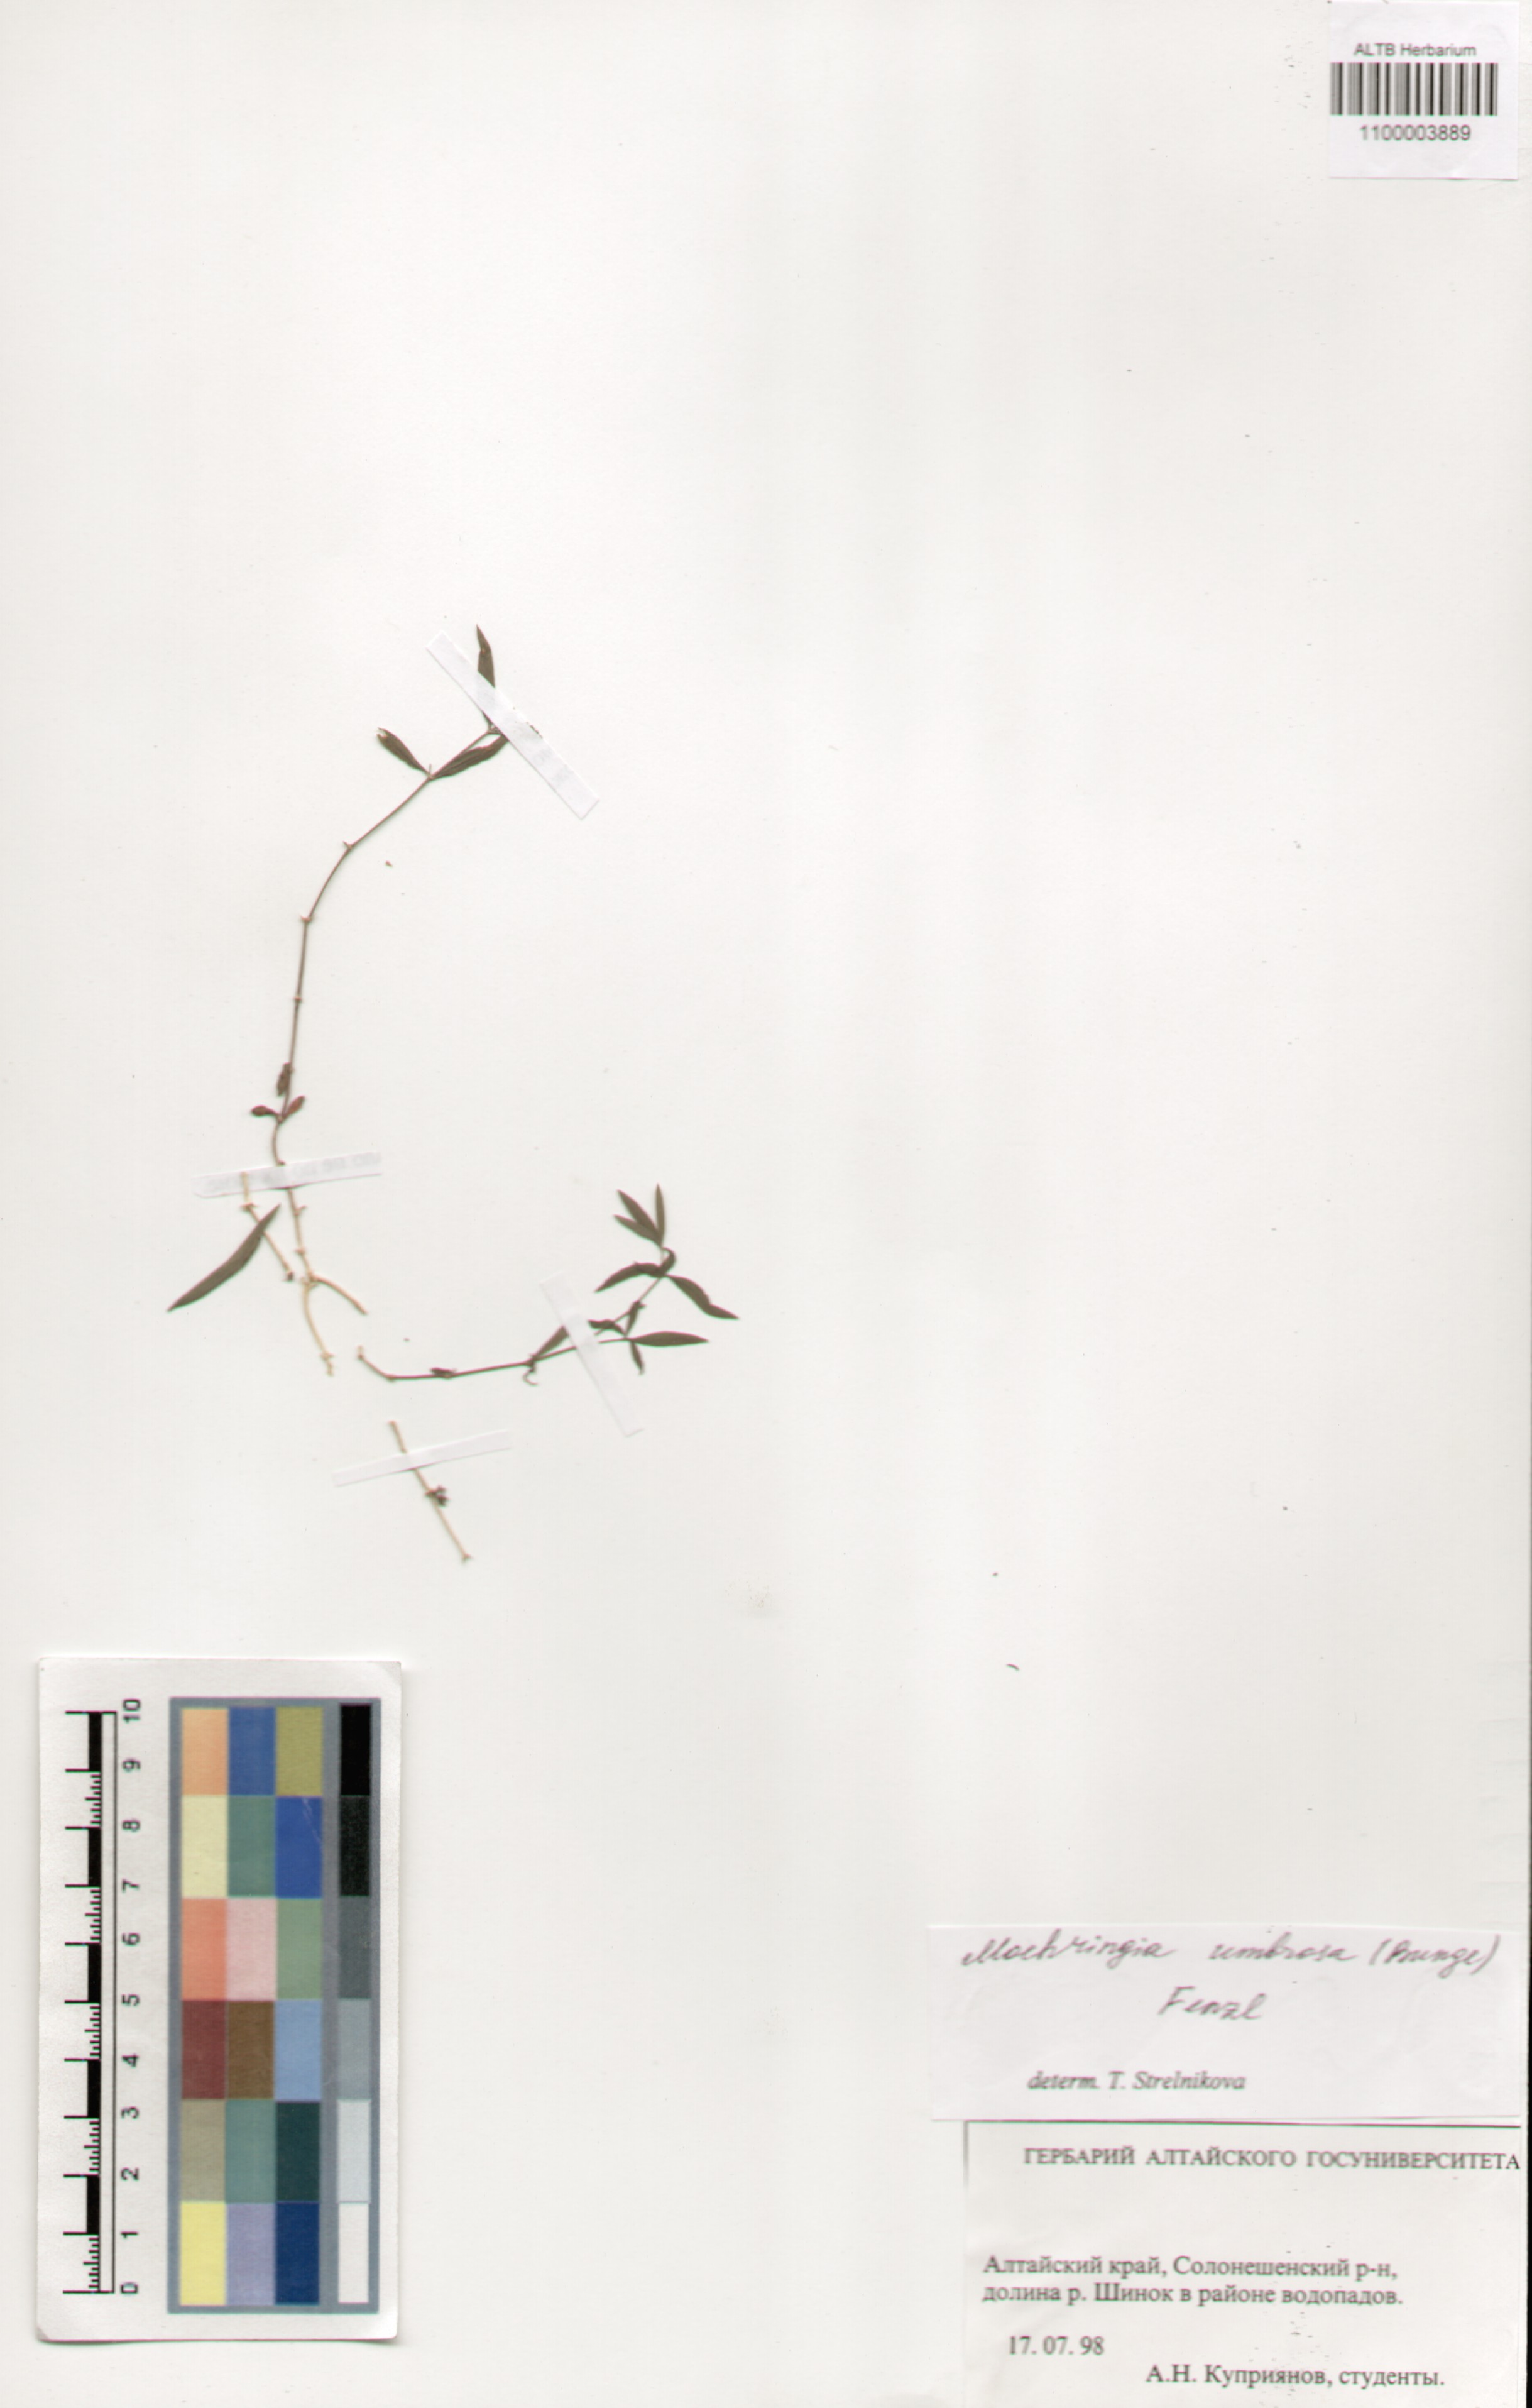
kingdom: Plantae
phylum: Tracheophyta
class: Magnoliopsida
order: Caryophyllales
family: Caryophyllaceae
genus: Moehringia
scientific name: Moehringia umbrosa
